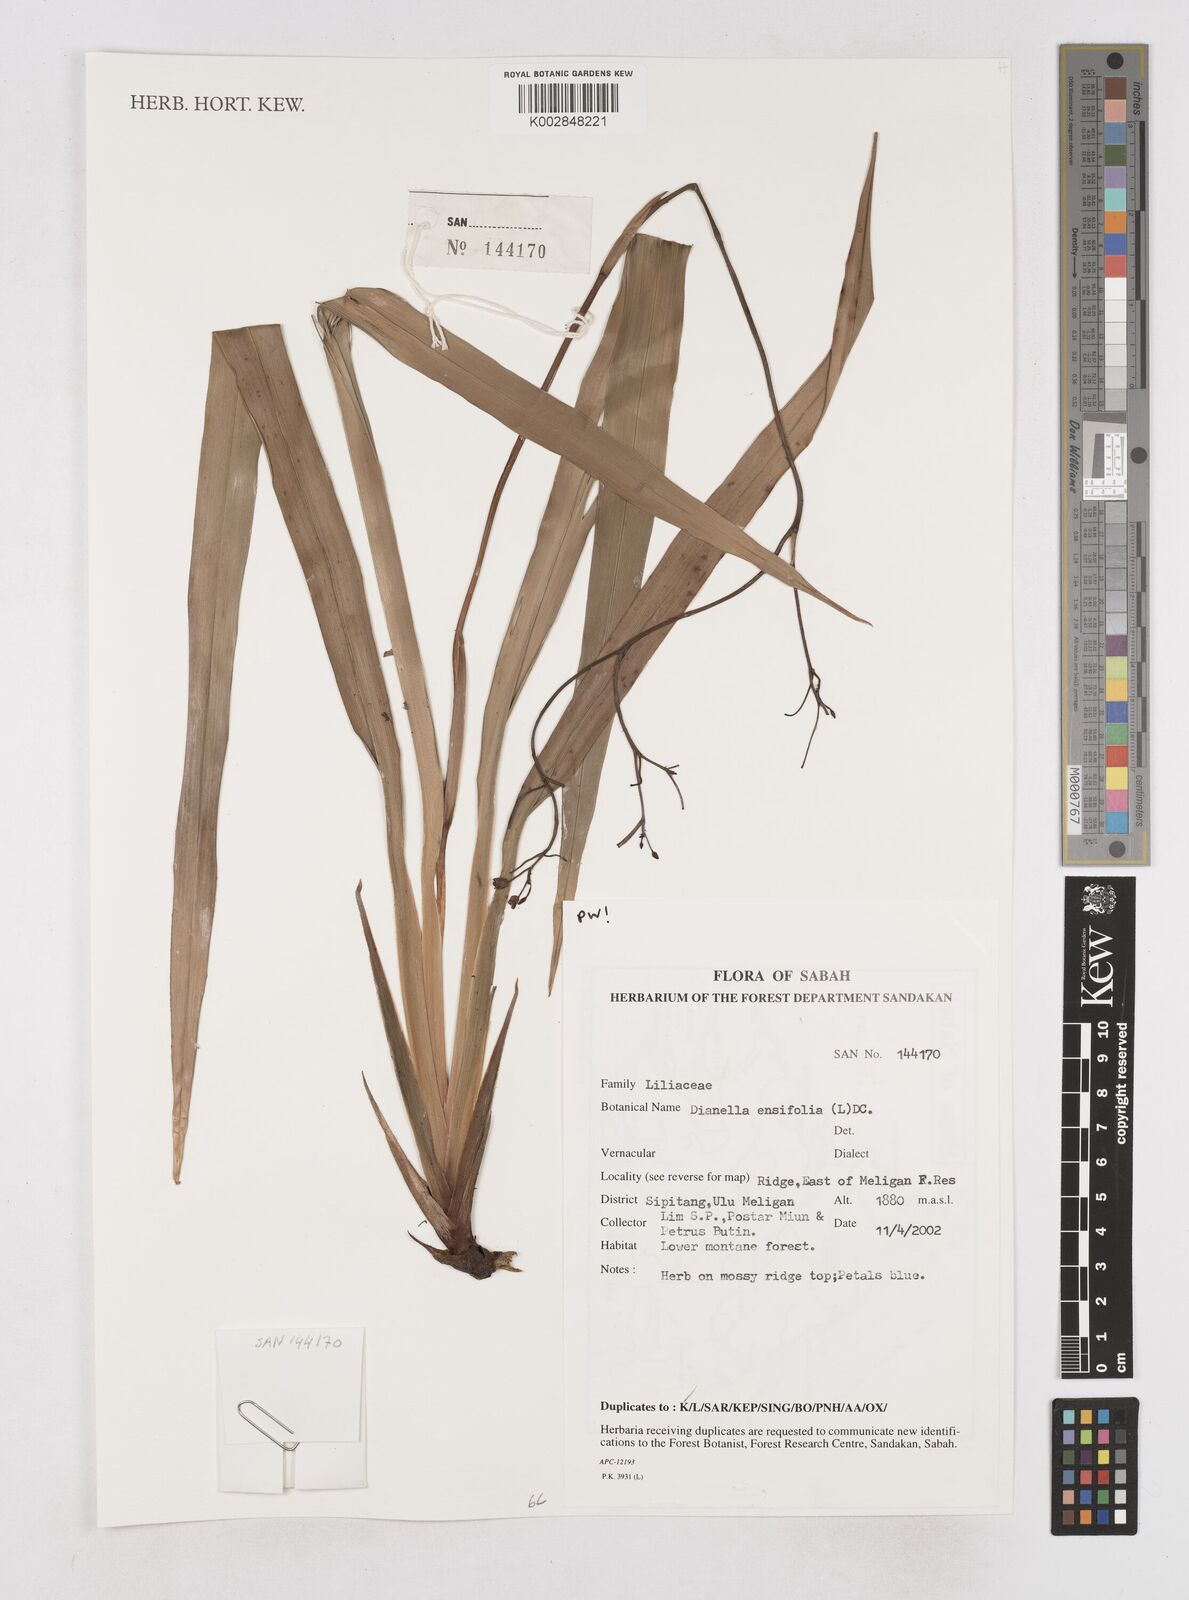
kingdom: Plantae
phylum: Tracheophyta
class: Liliopsida
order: Asparagales
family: Asphodelaceae
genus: Dianella
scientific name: Dianella ensifolia
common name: New zealand lilyplant
